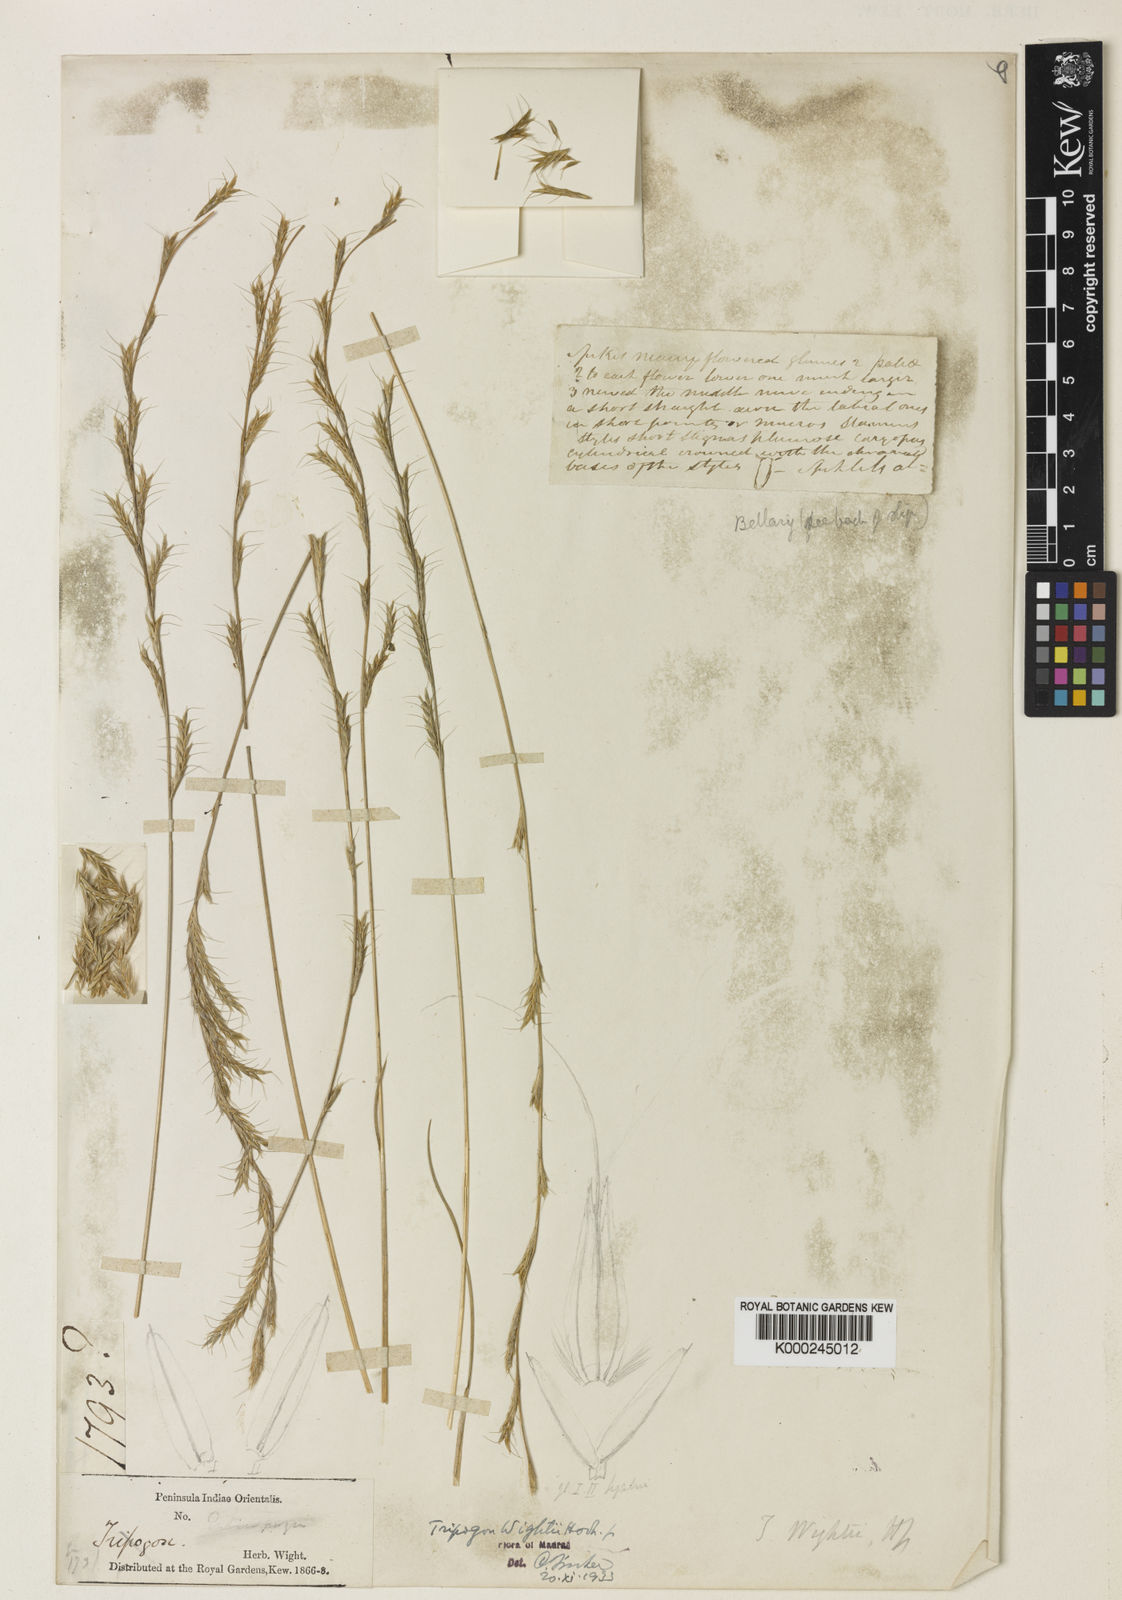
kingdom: Plantae
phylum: Tracheophyta
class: Liliopsida
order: Poales
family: Poaceae
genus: Tripogon
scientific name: Tripogon wightii
